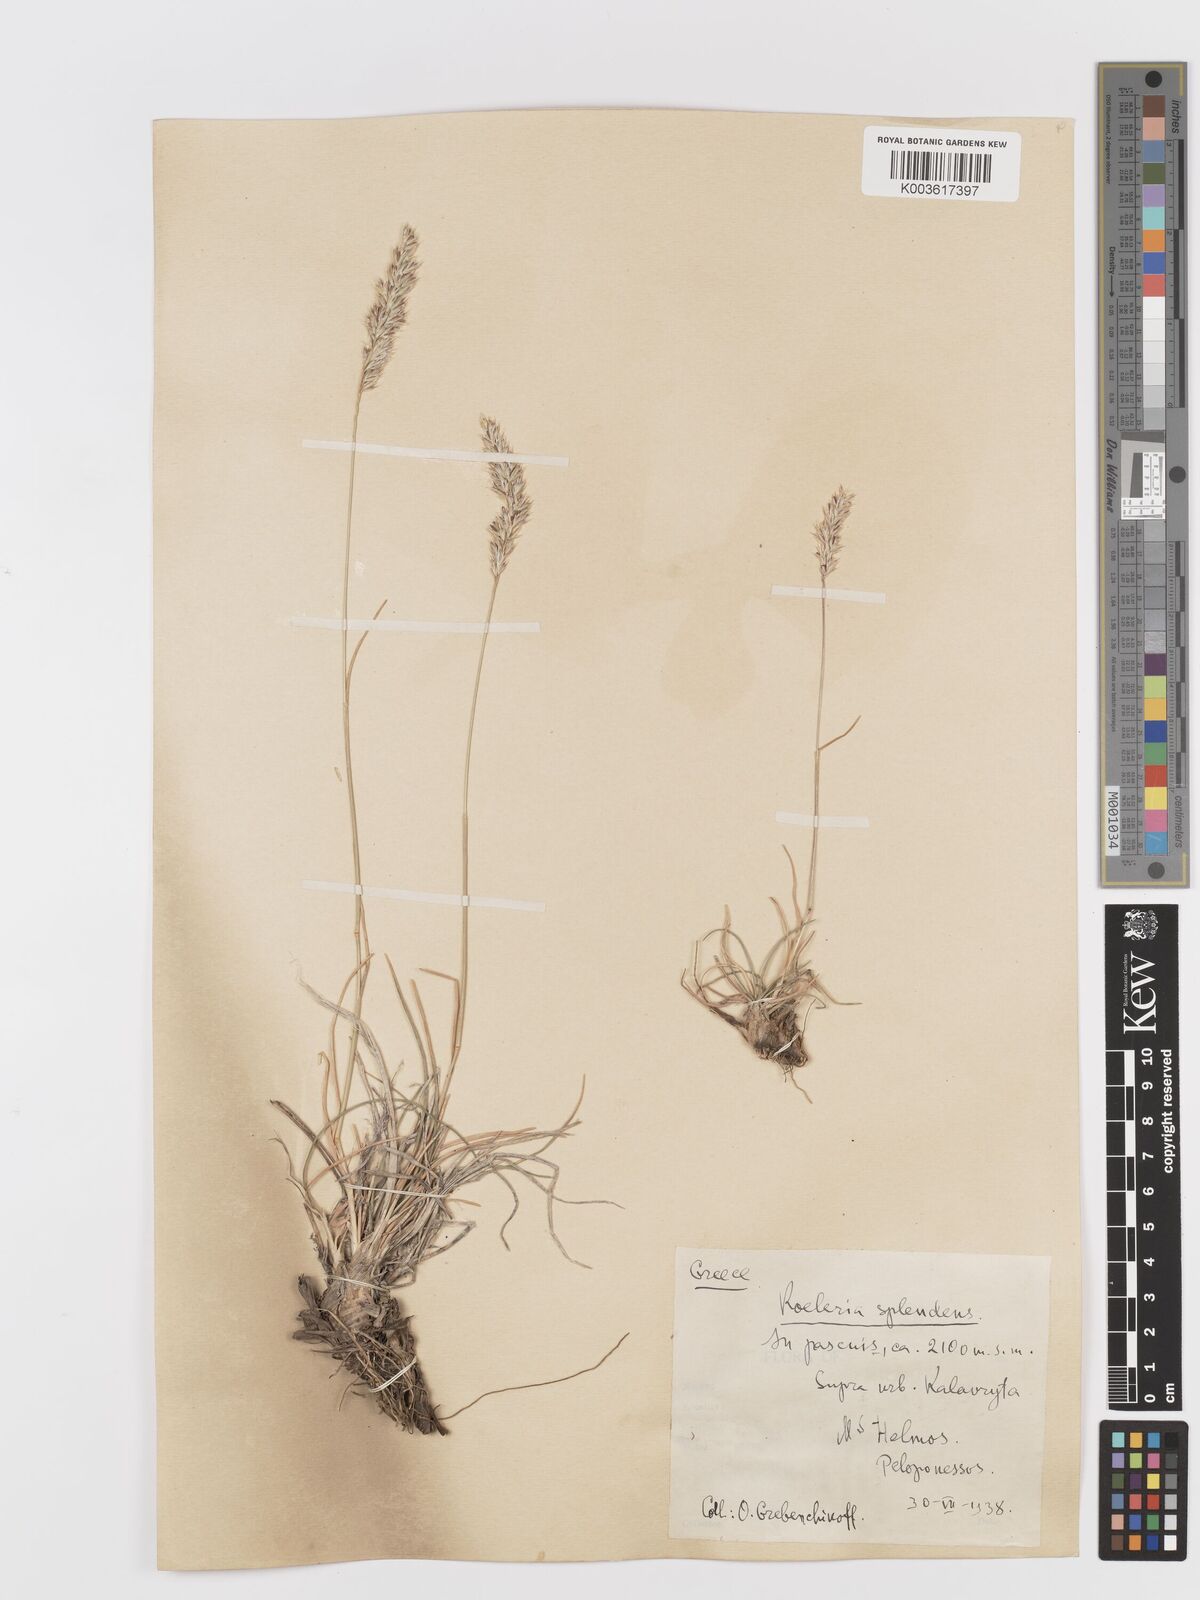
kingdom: Plantae
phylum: Tracheophyta
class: Liliopsida
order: Poales
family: Poaceae
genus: Koeleria
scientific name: Koeleria splendens
